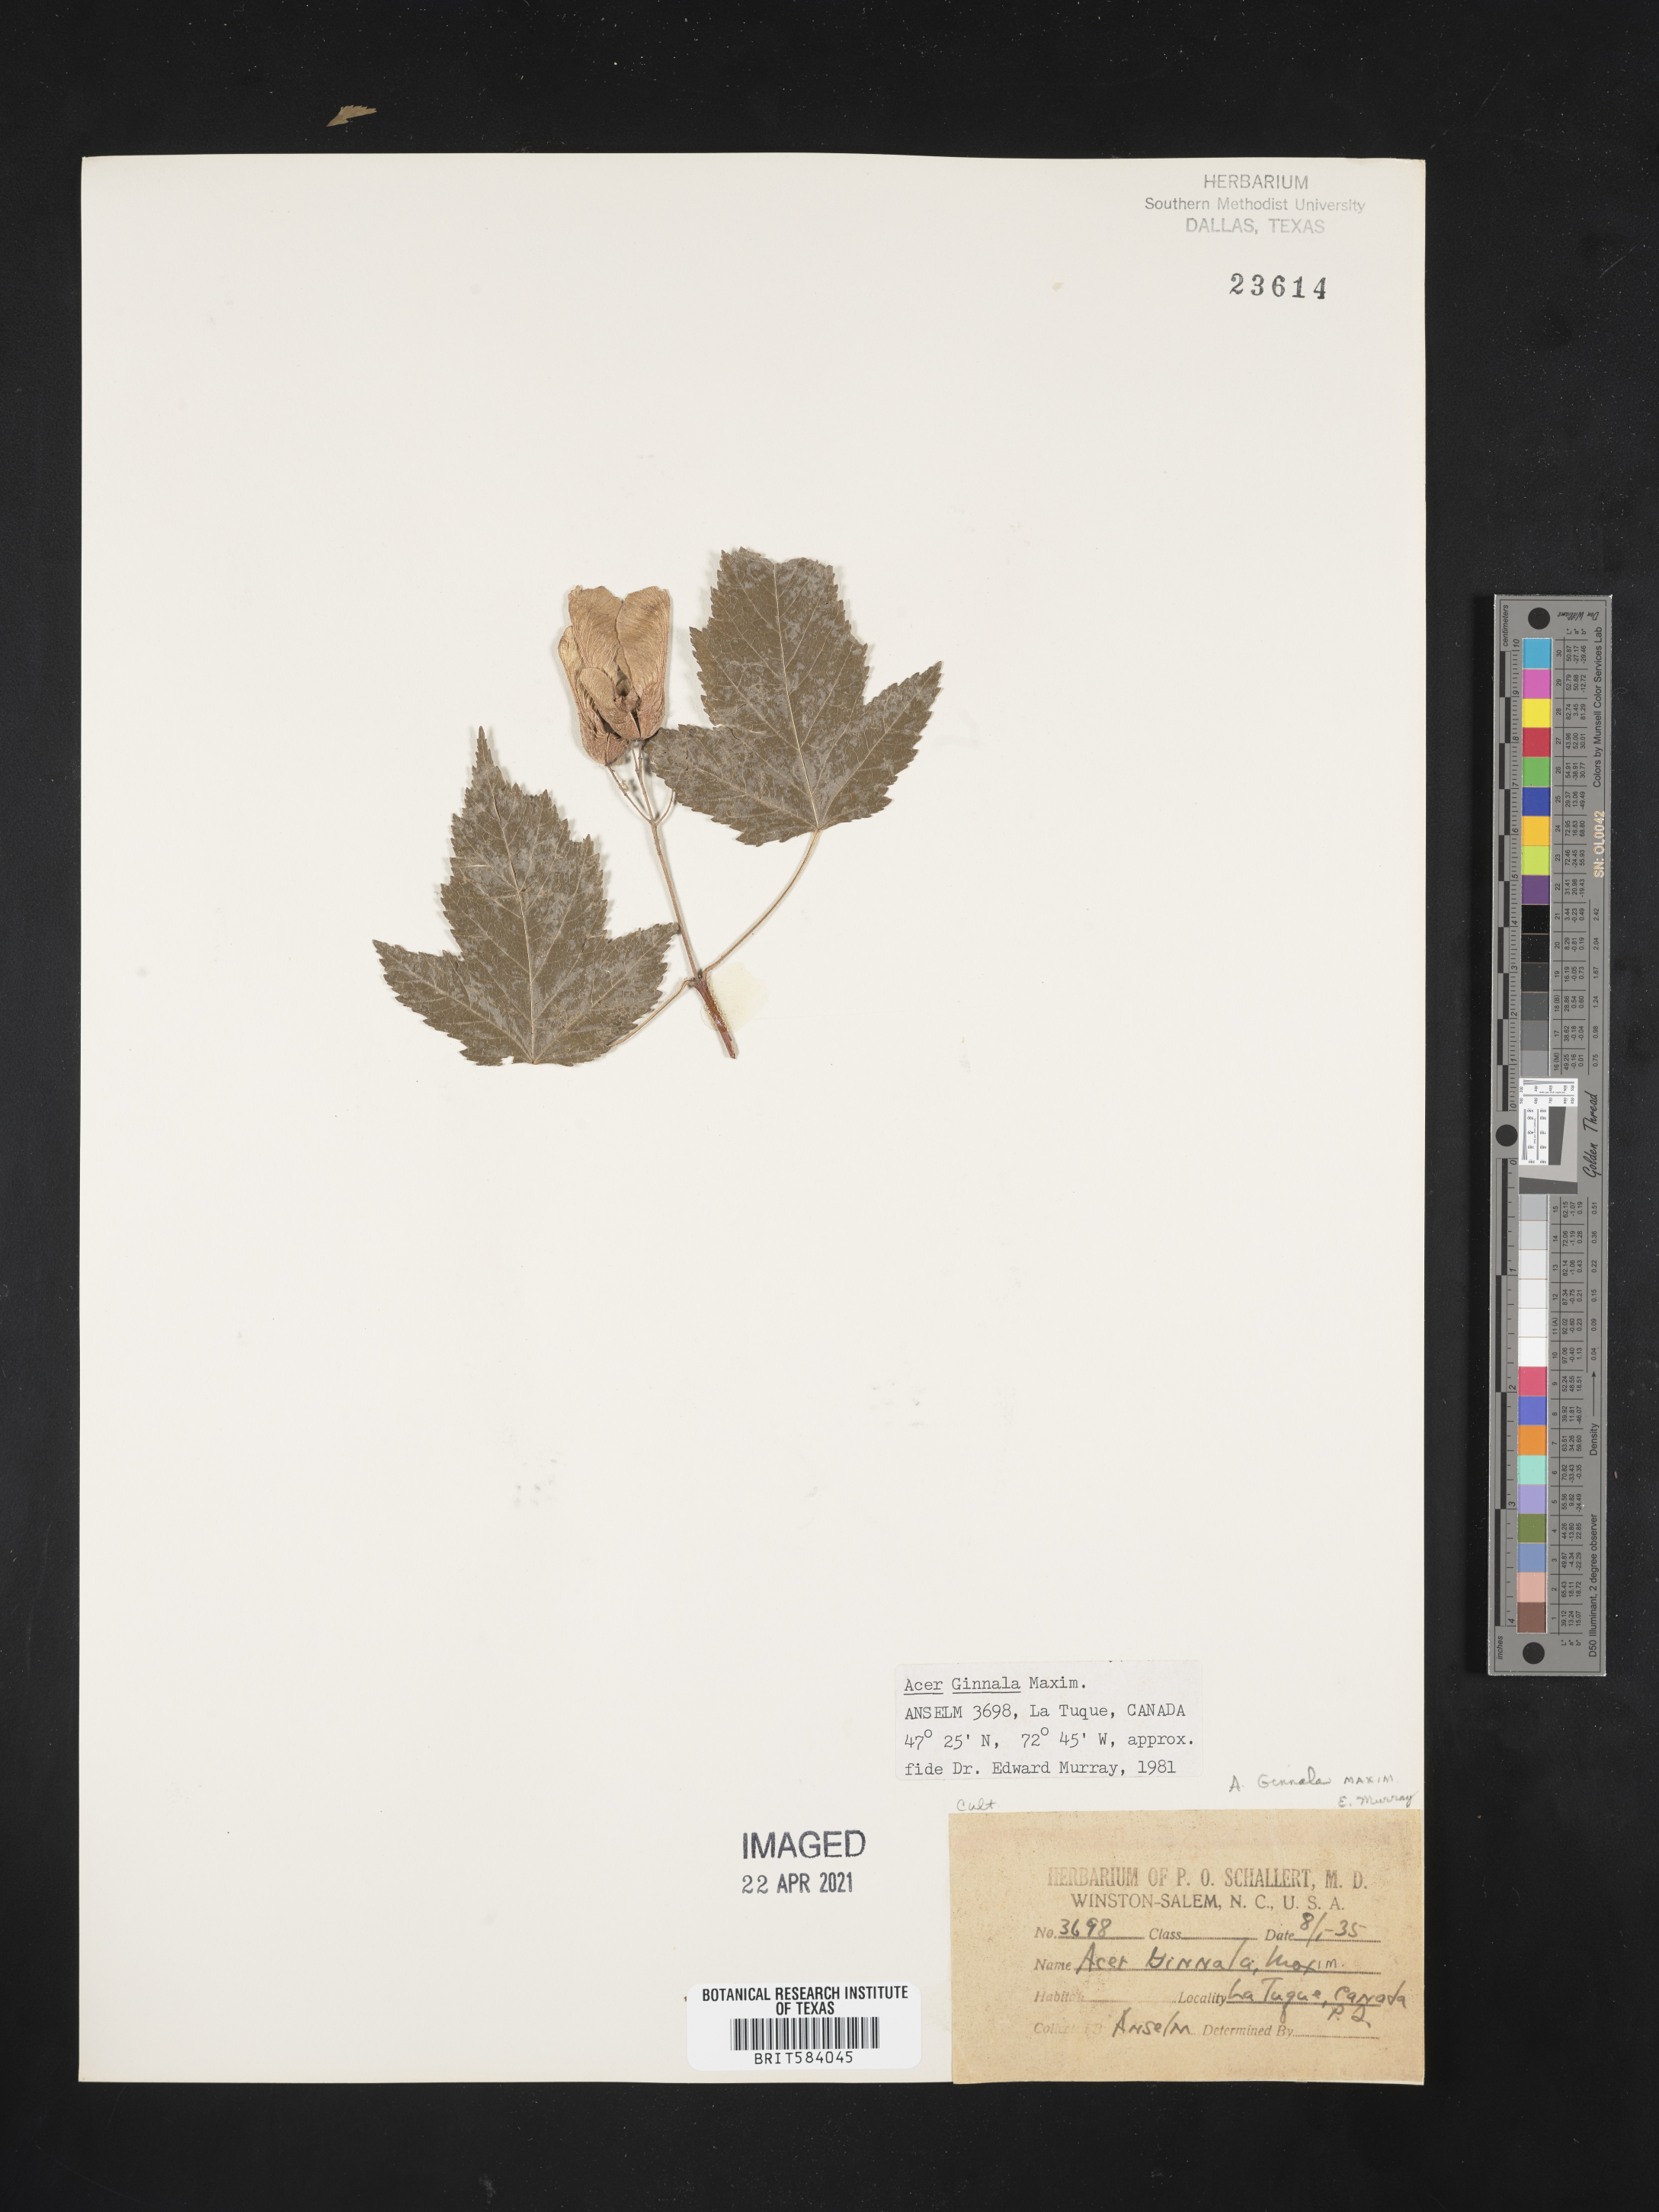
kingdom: Plantae
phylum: Tracheophyta
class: Magnoliopsida
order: Sapindales
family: Sapindaceae
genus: Acer
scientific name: Acer tataricum
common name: Tartar maple
